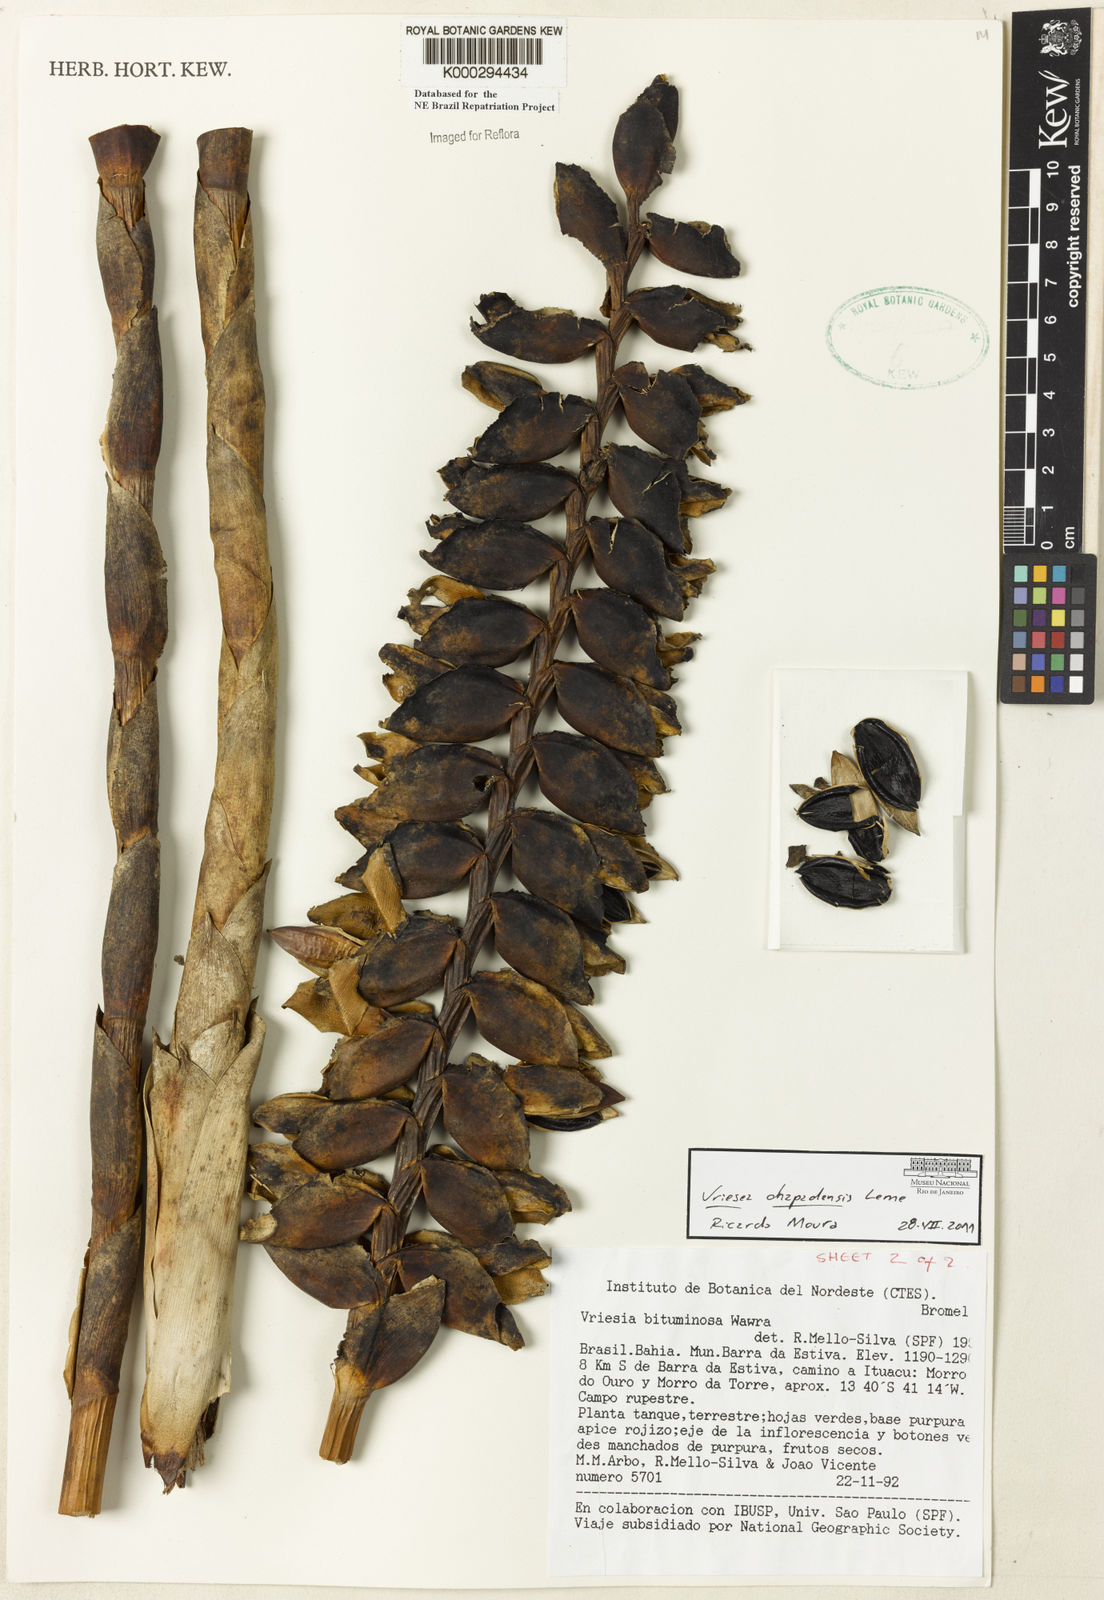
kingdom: Plantae
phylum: Tracheophyta
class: Liliopsida
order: Poales
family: Bromeliaceae
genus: Vriesea
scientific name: Vriesea bituminosa
